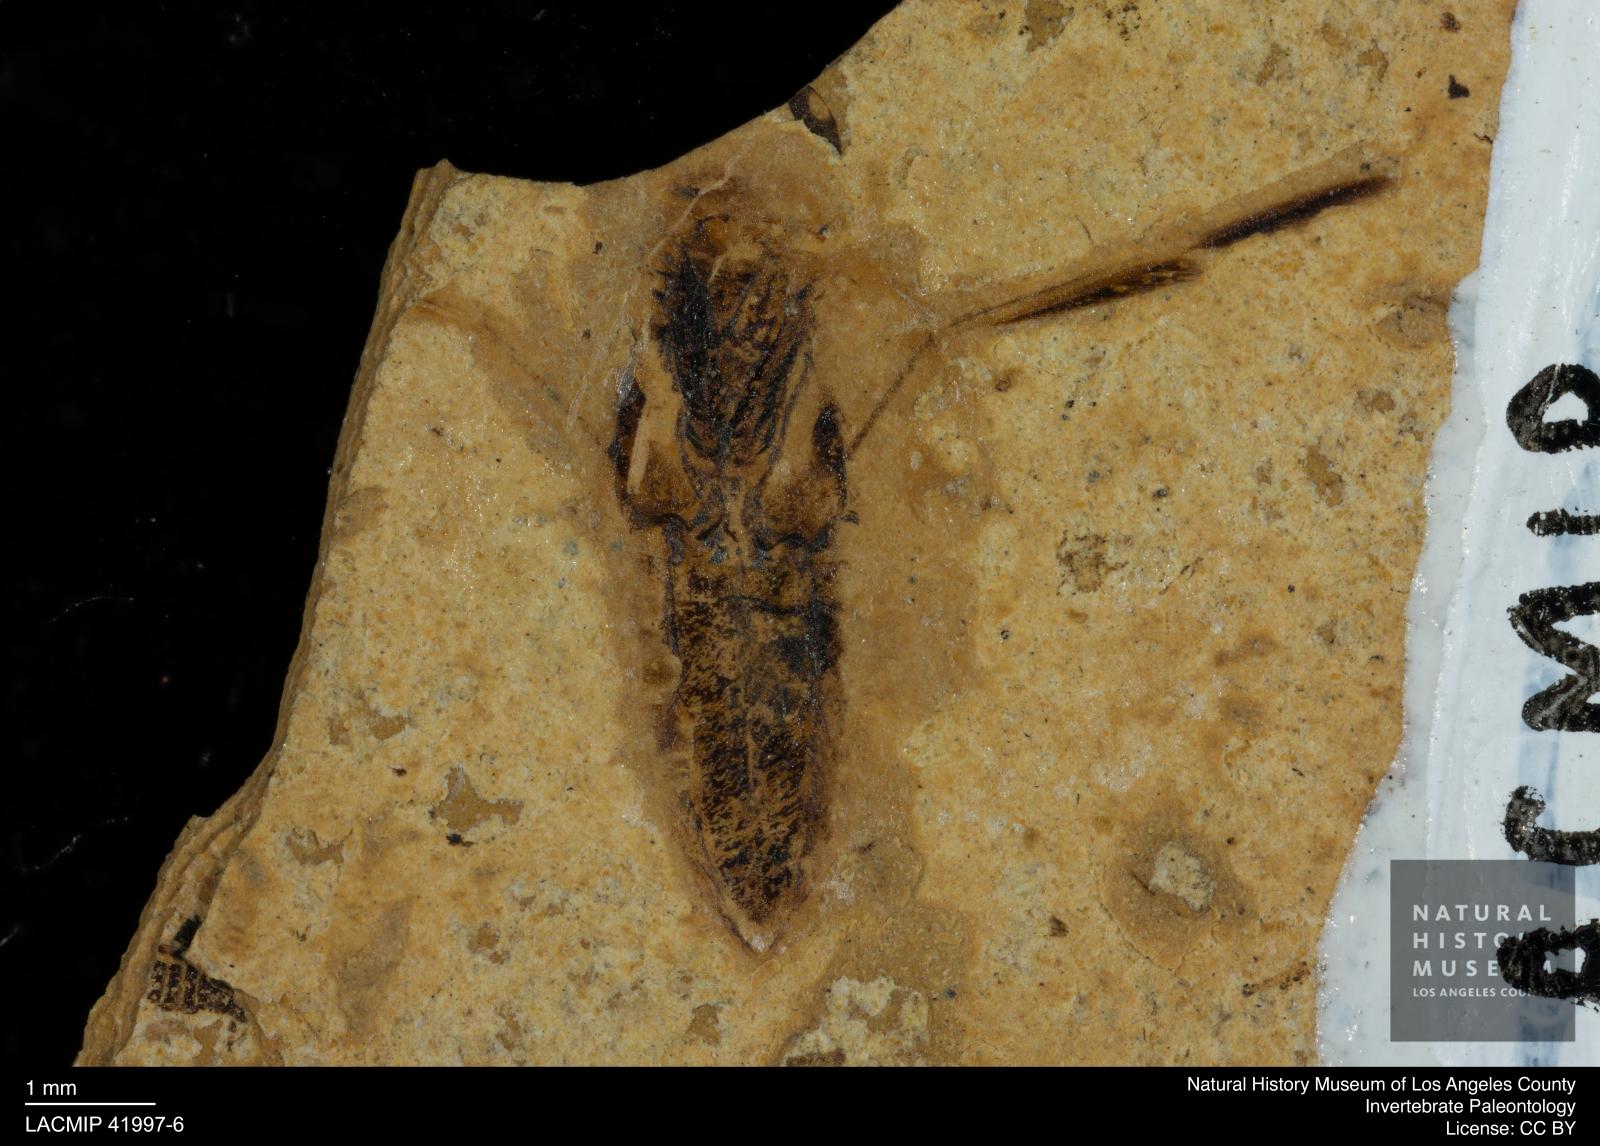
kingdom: Animalia
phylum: Arthropoda
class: Insecta
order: Hemiptera
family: Notonectidae
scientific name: Notonectidae
